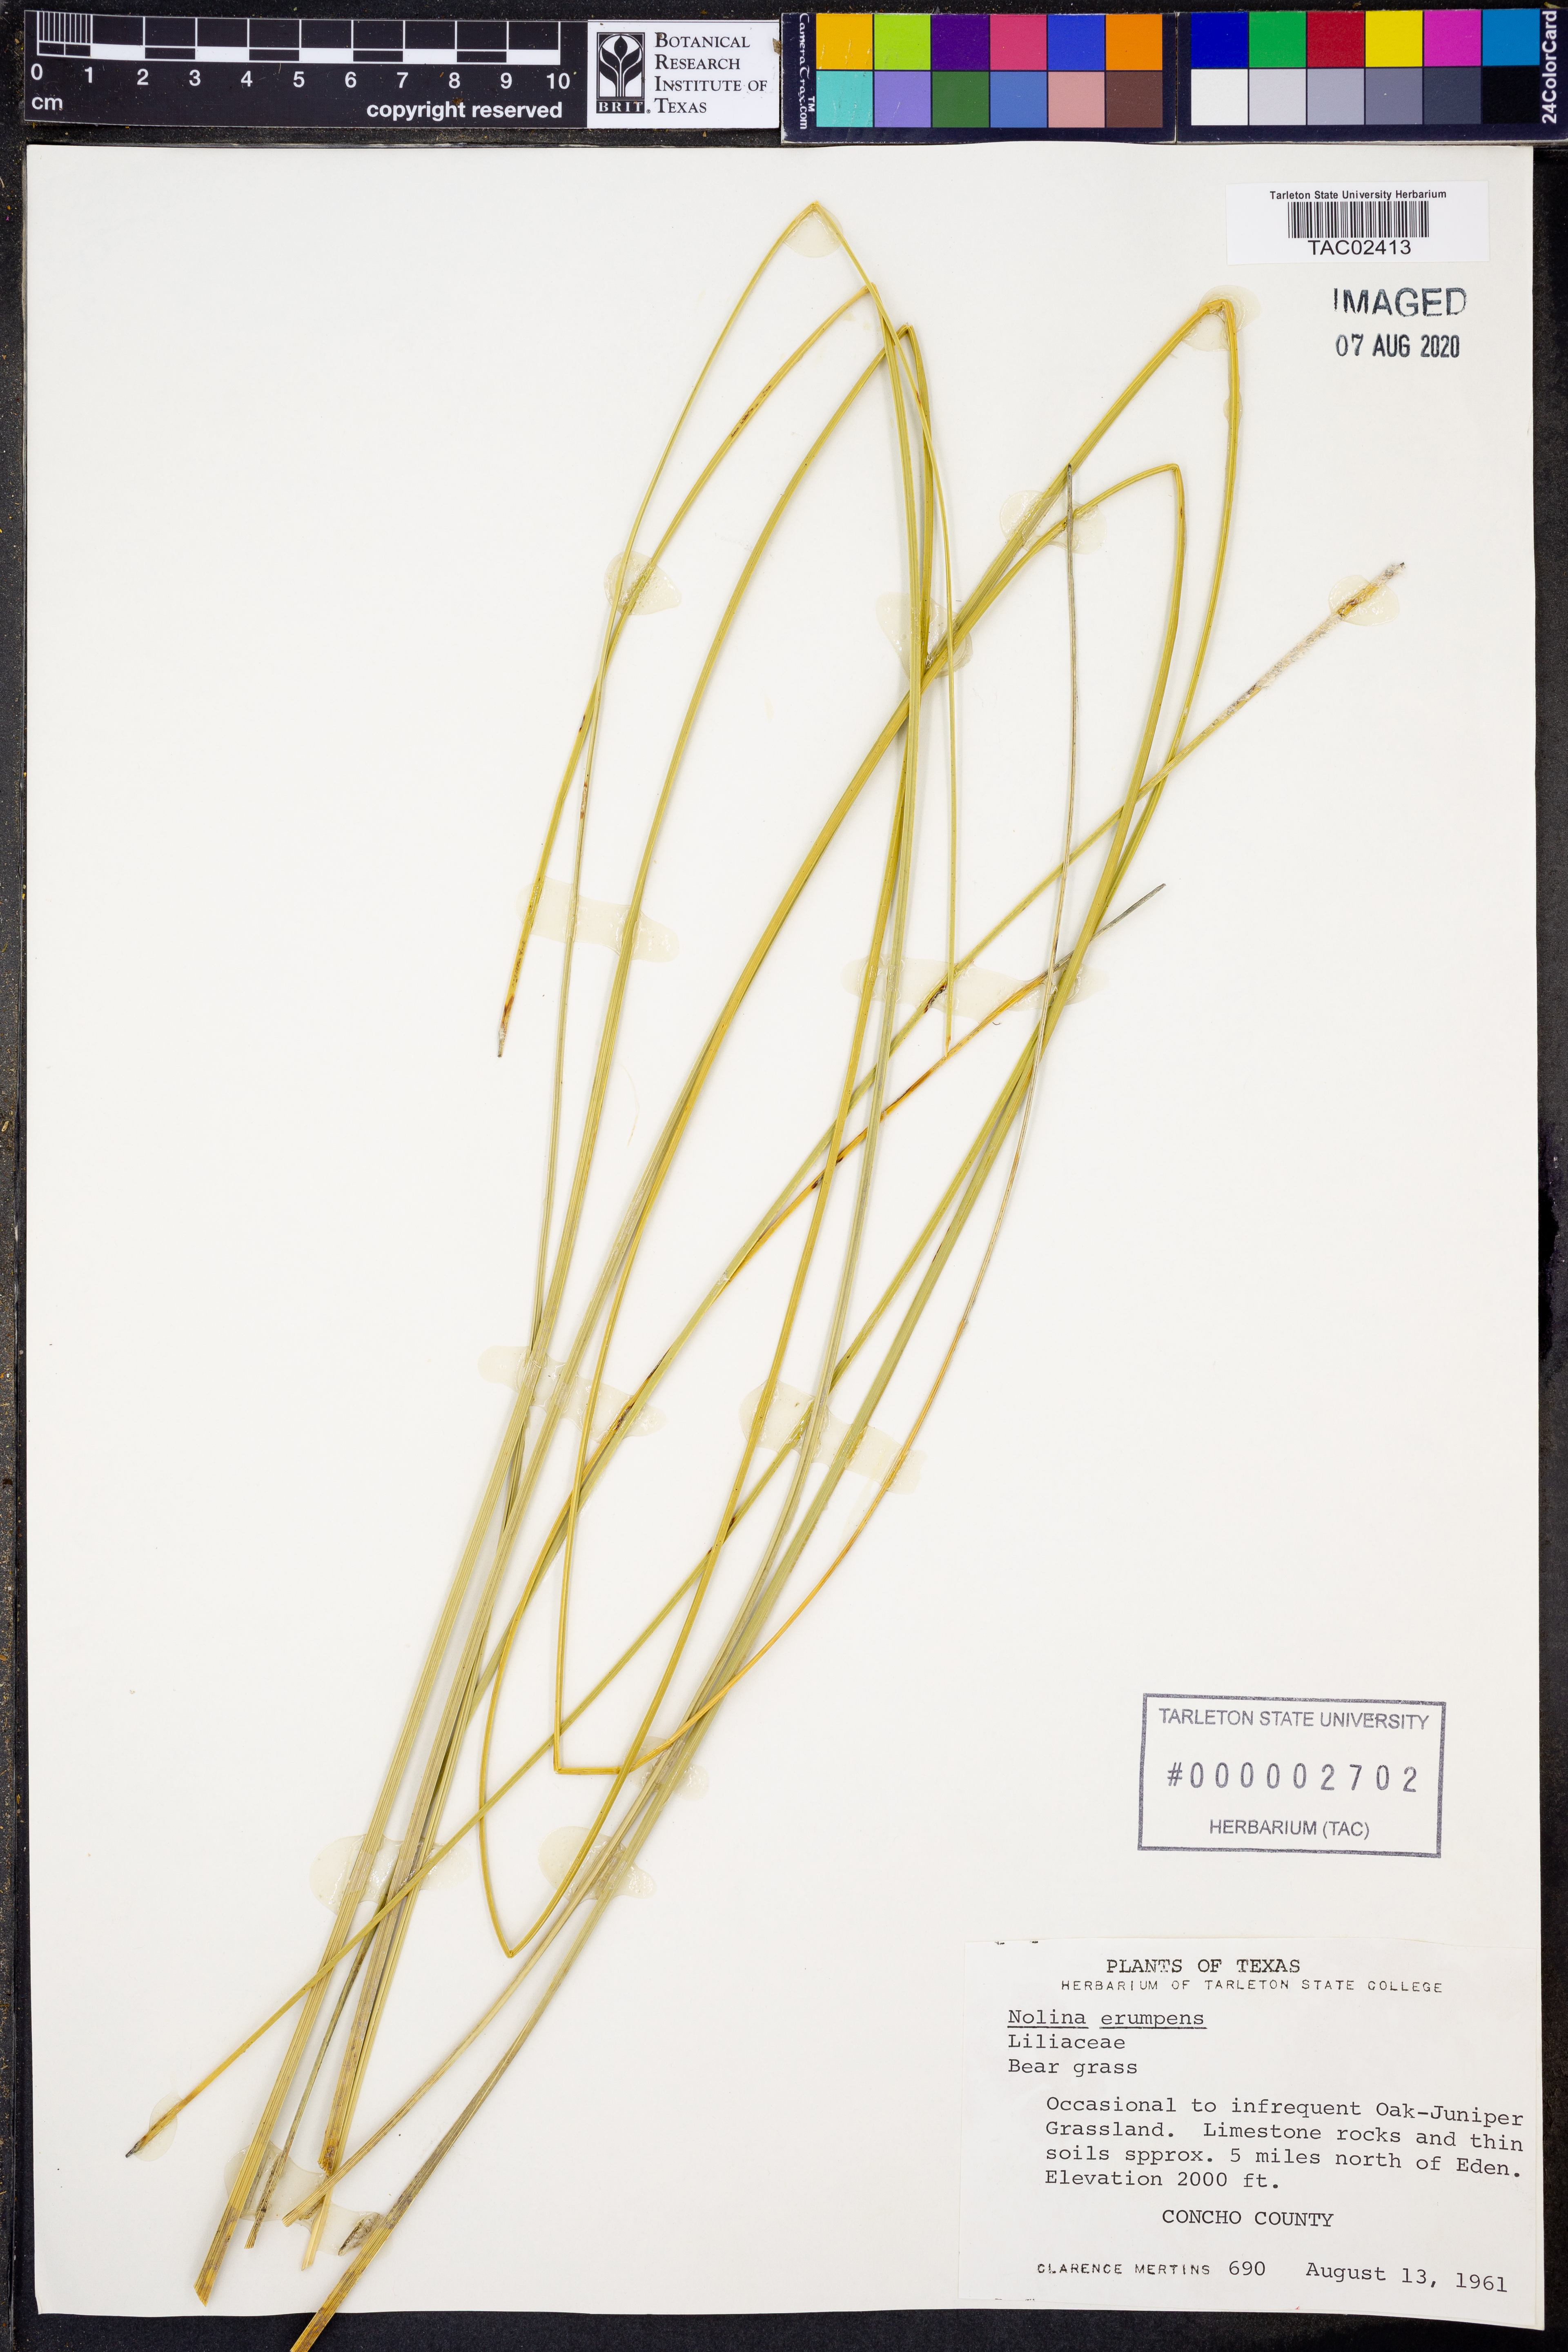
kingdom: Plantae
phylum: Tracheophyta
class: Liliopsida
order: Asparagales
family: Asparagaceae
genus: Nolina
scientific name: Nolina erumpens
